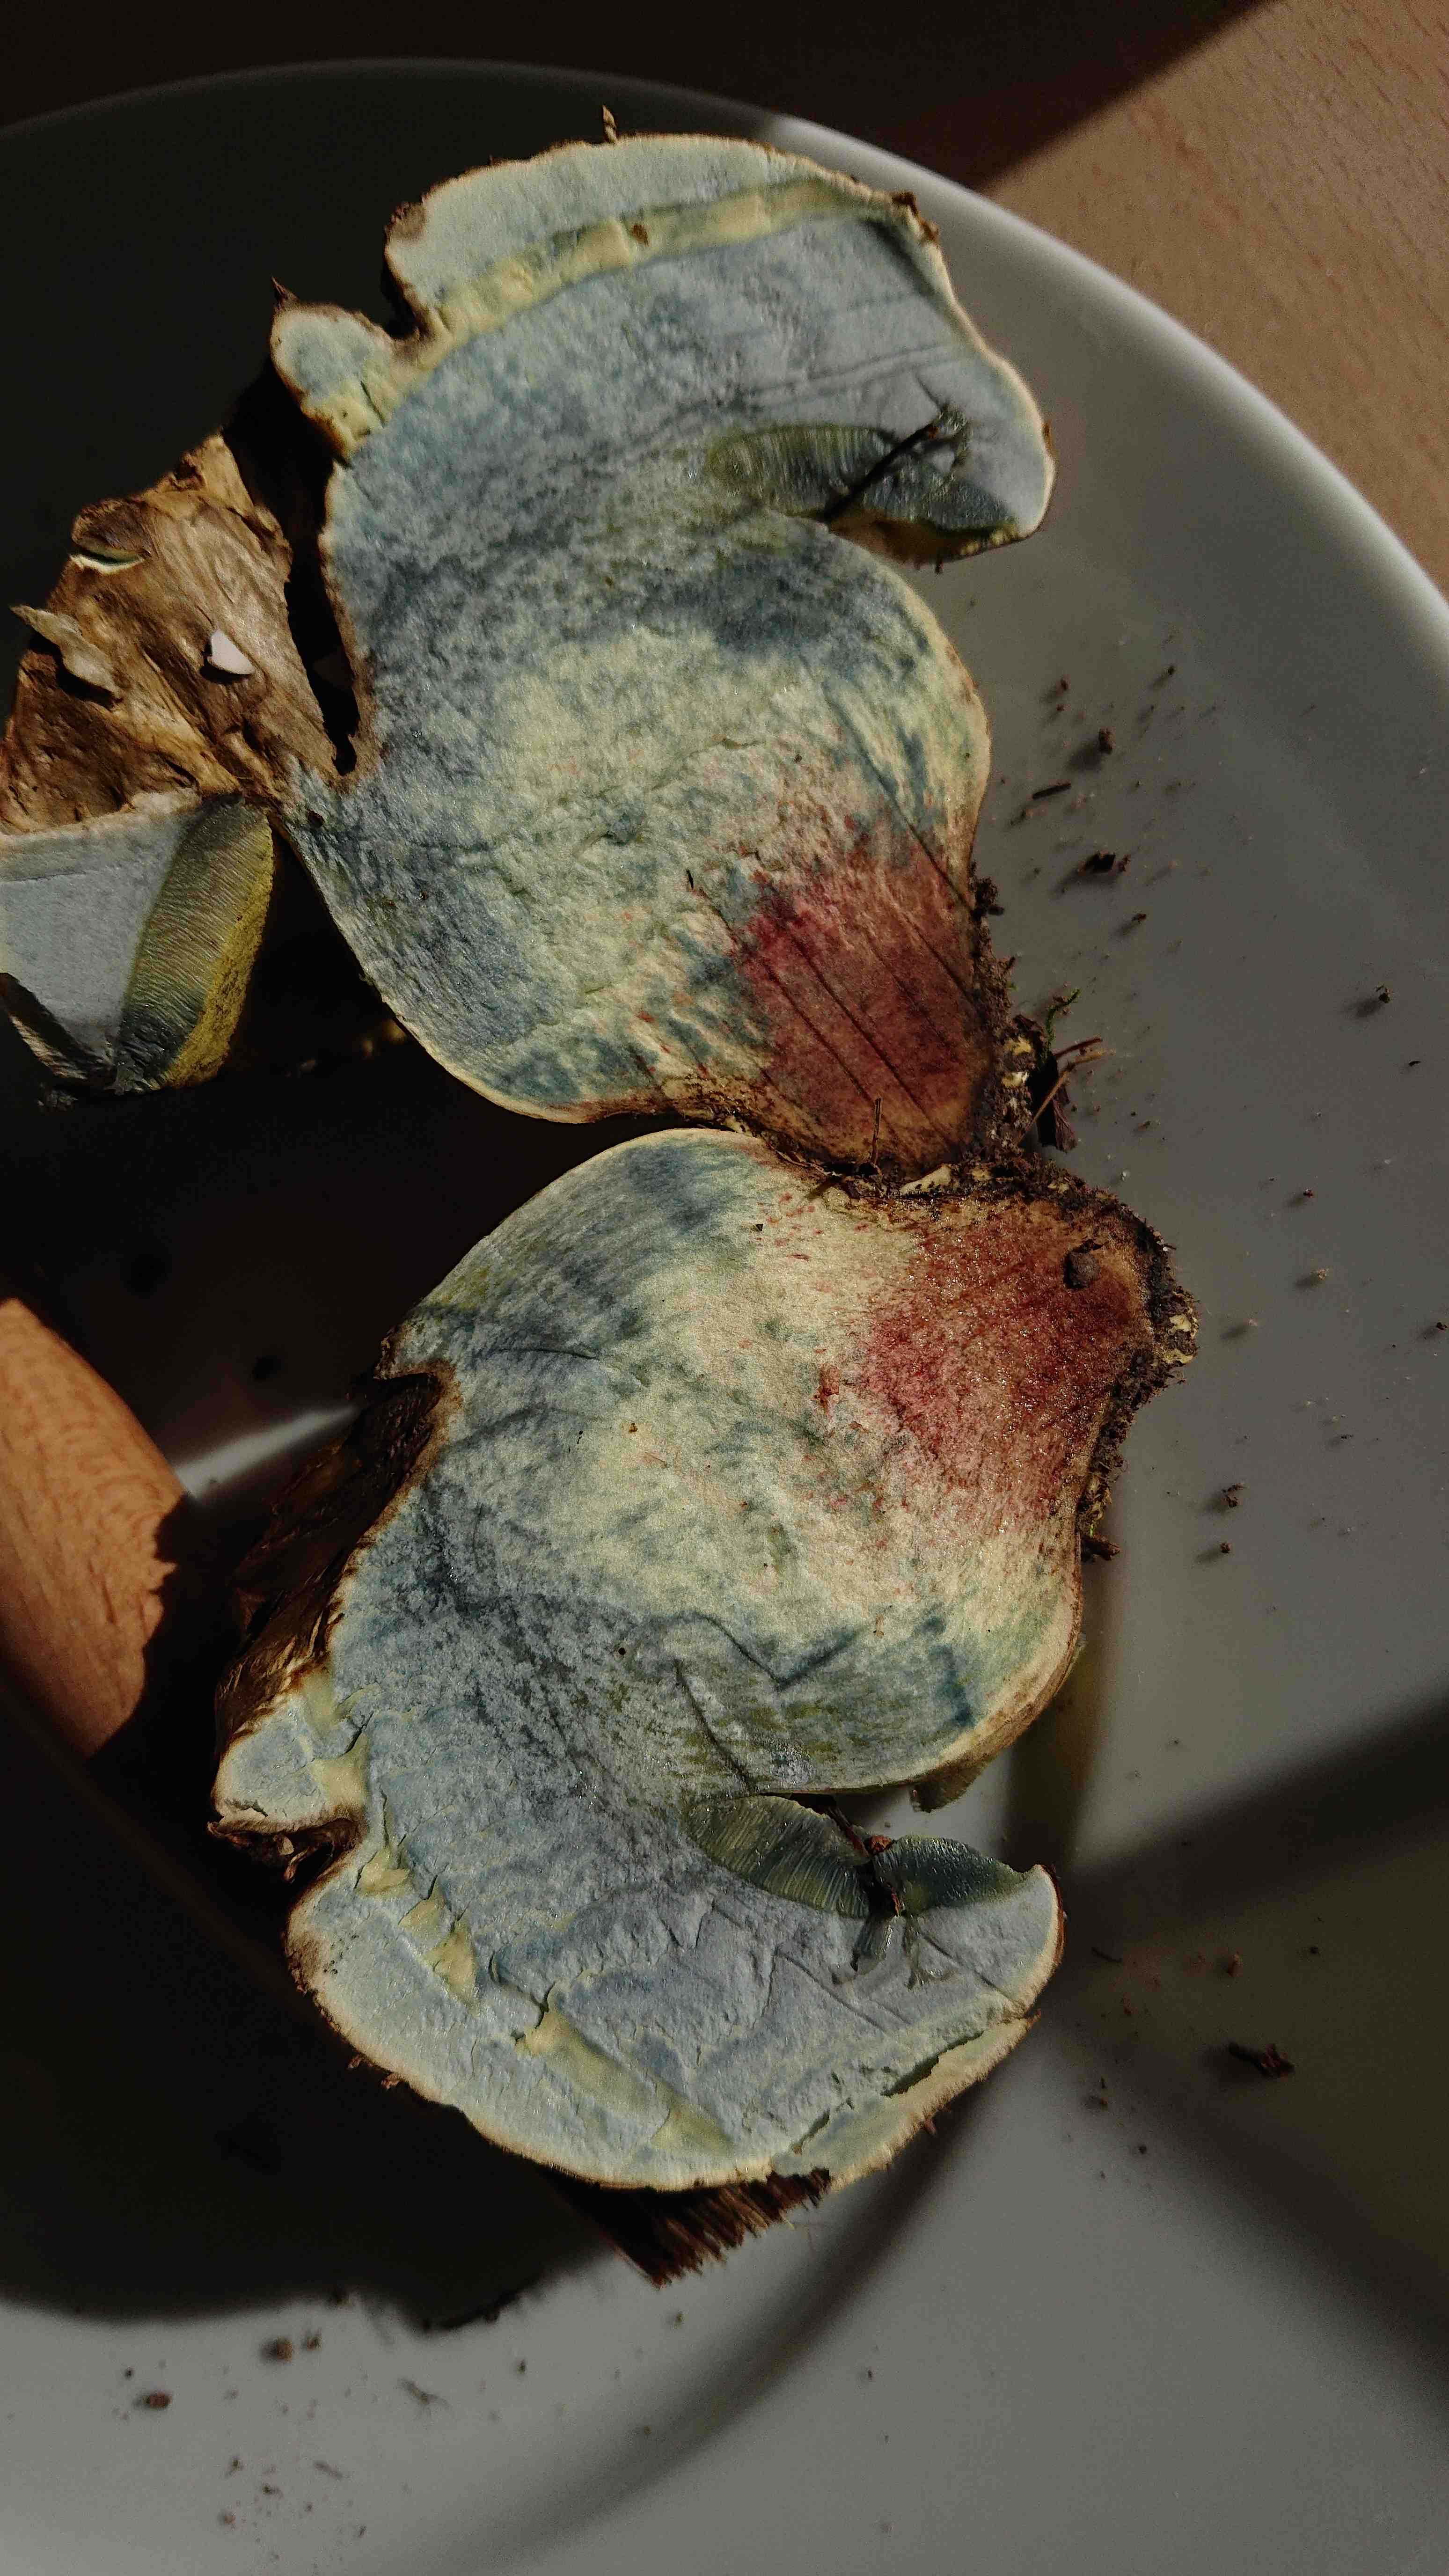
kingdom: Fungi
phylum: Basidiomycota
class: Agaricomycetes
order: Boletales
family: Boletaceae
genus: Caloboletus
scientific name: Caloboletus radicans
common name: rod-rørhat
